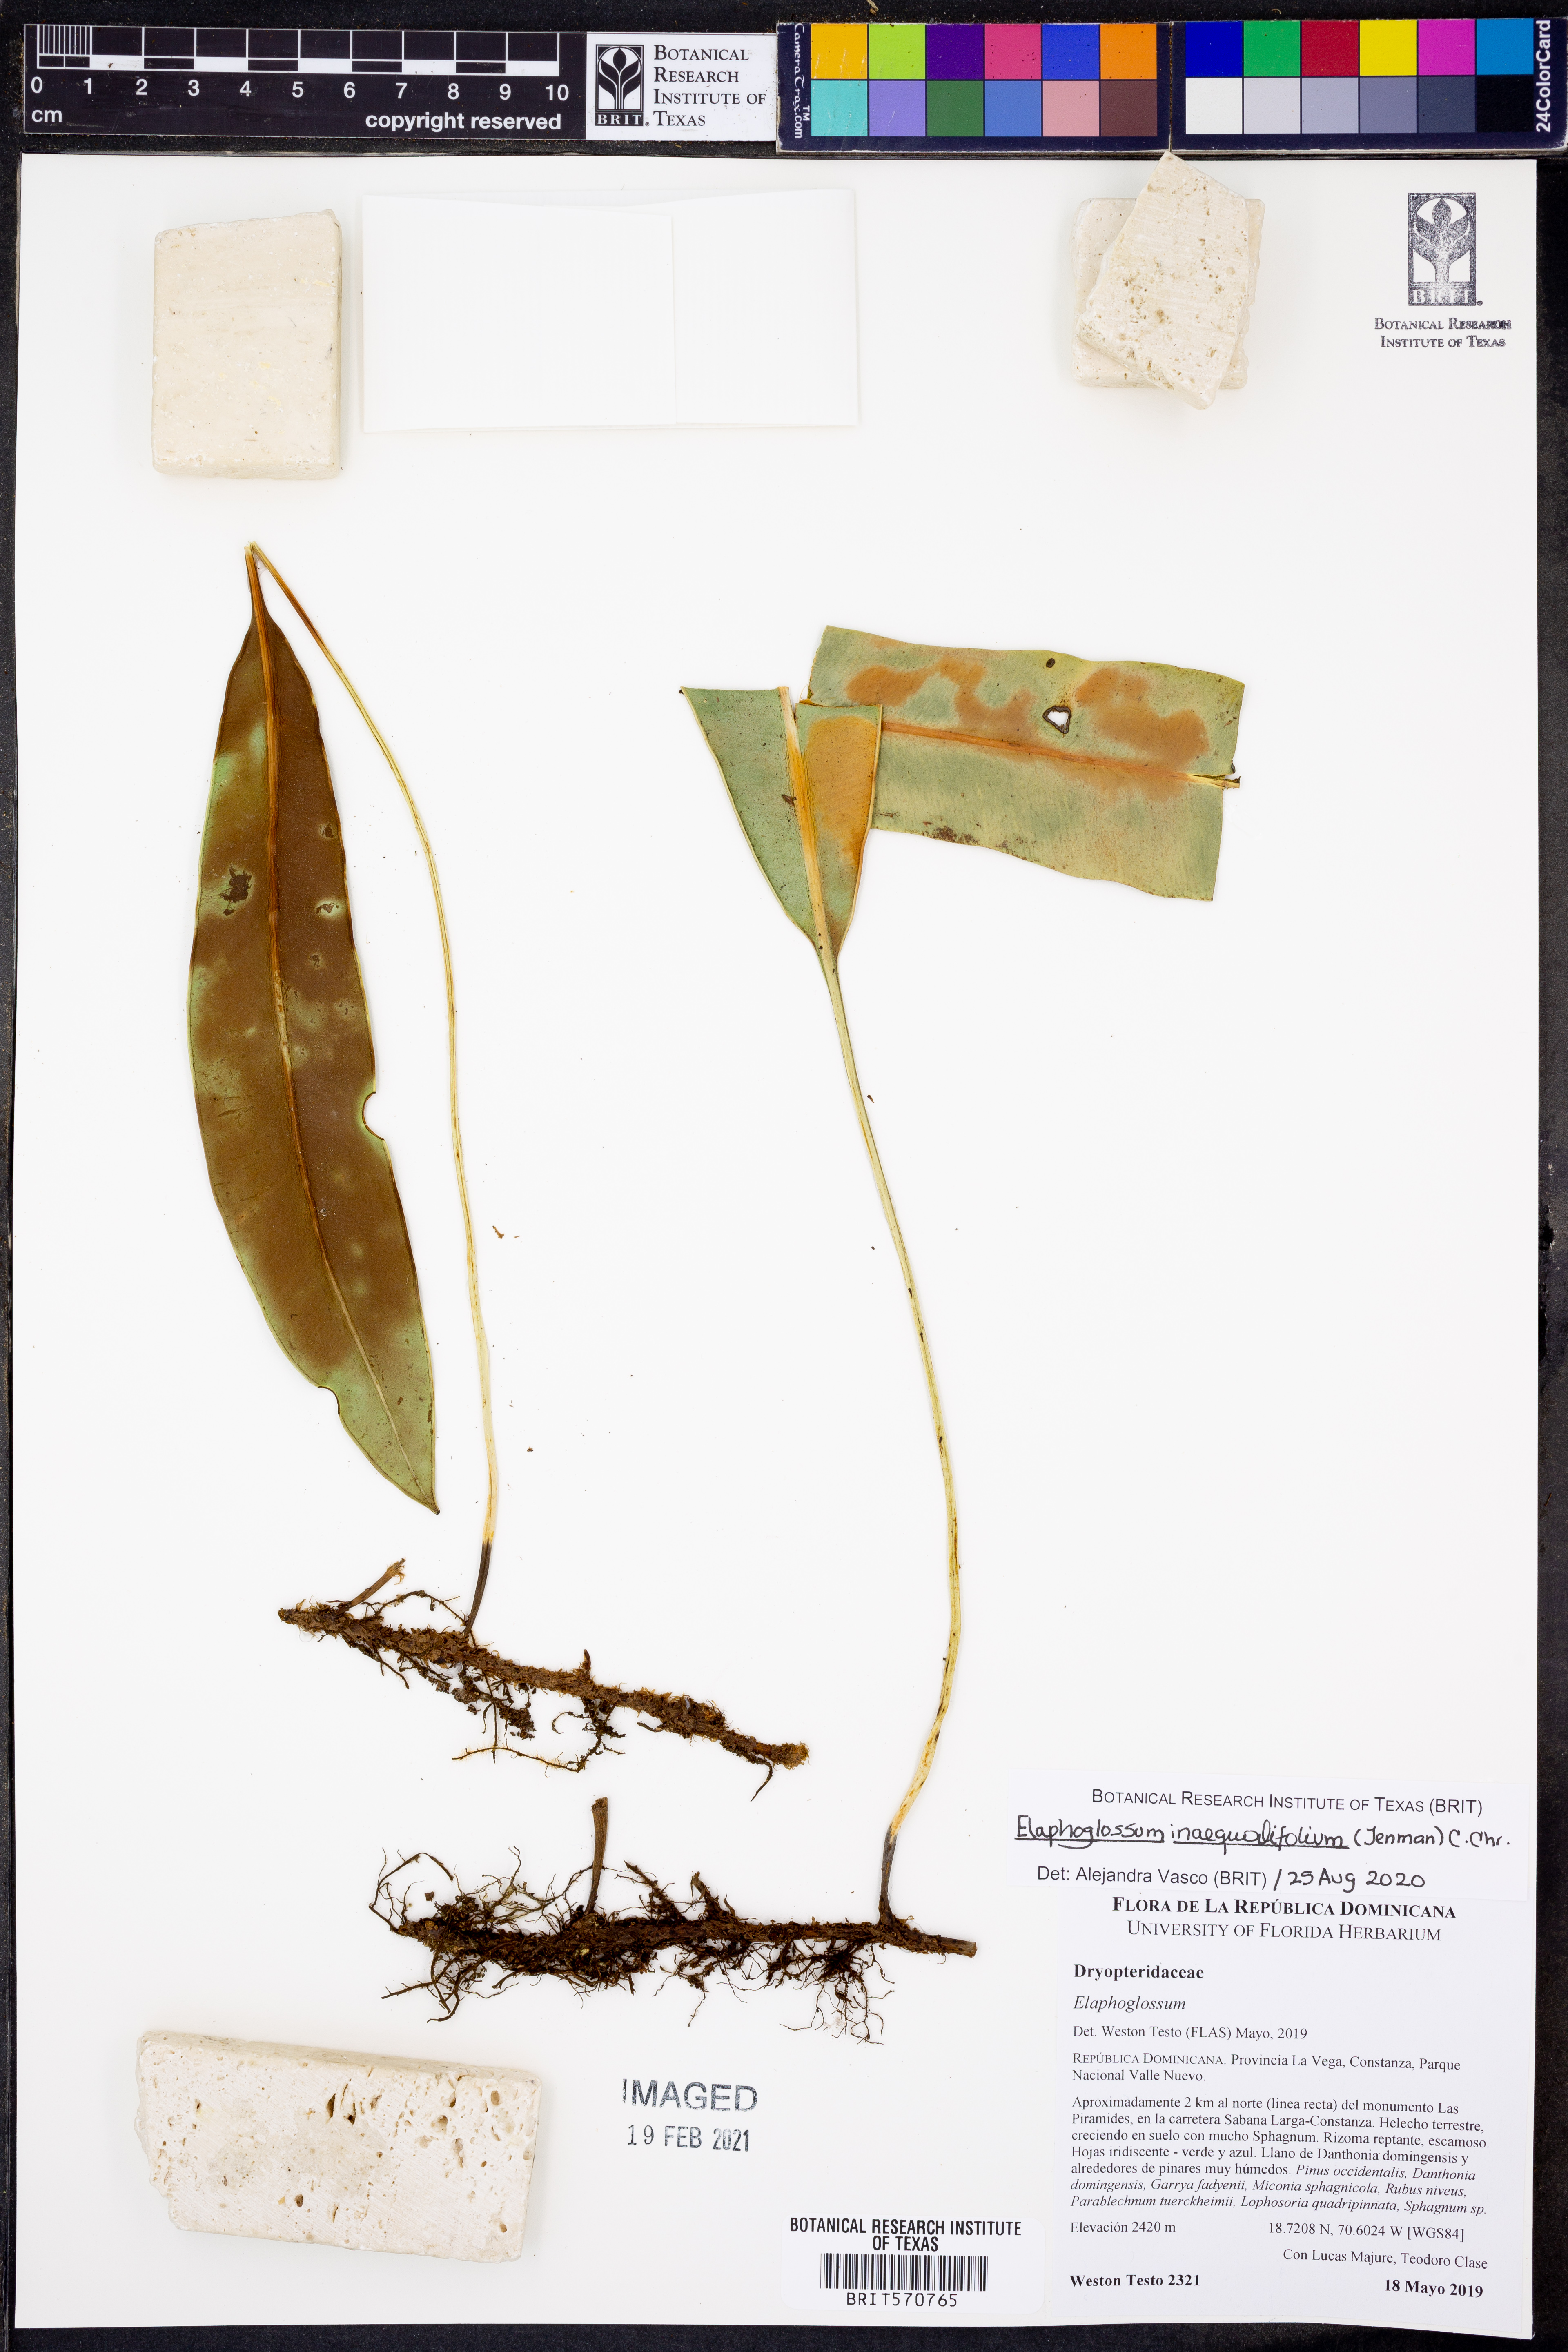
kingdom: Plantae
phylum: Tracheophyta
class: Polypodiopsida
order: Polypodiales
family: Dryopteridaceae
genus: Elaphoglossum
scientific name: Elaphoglossum
